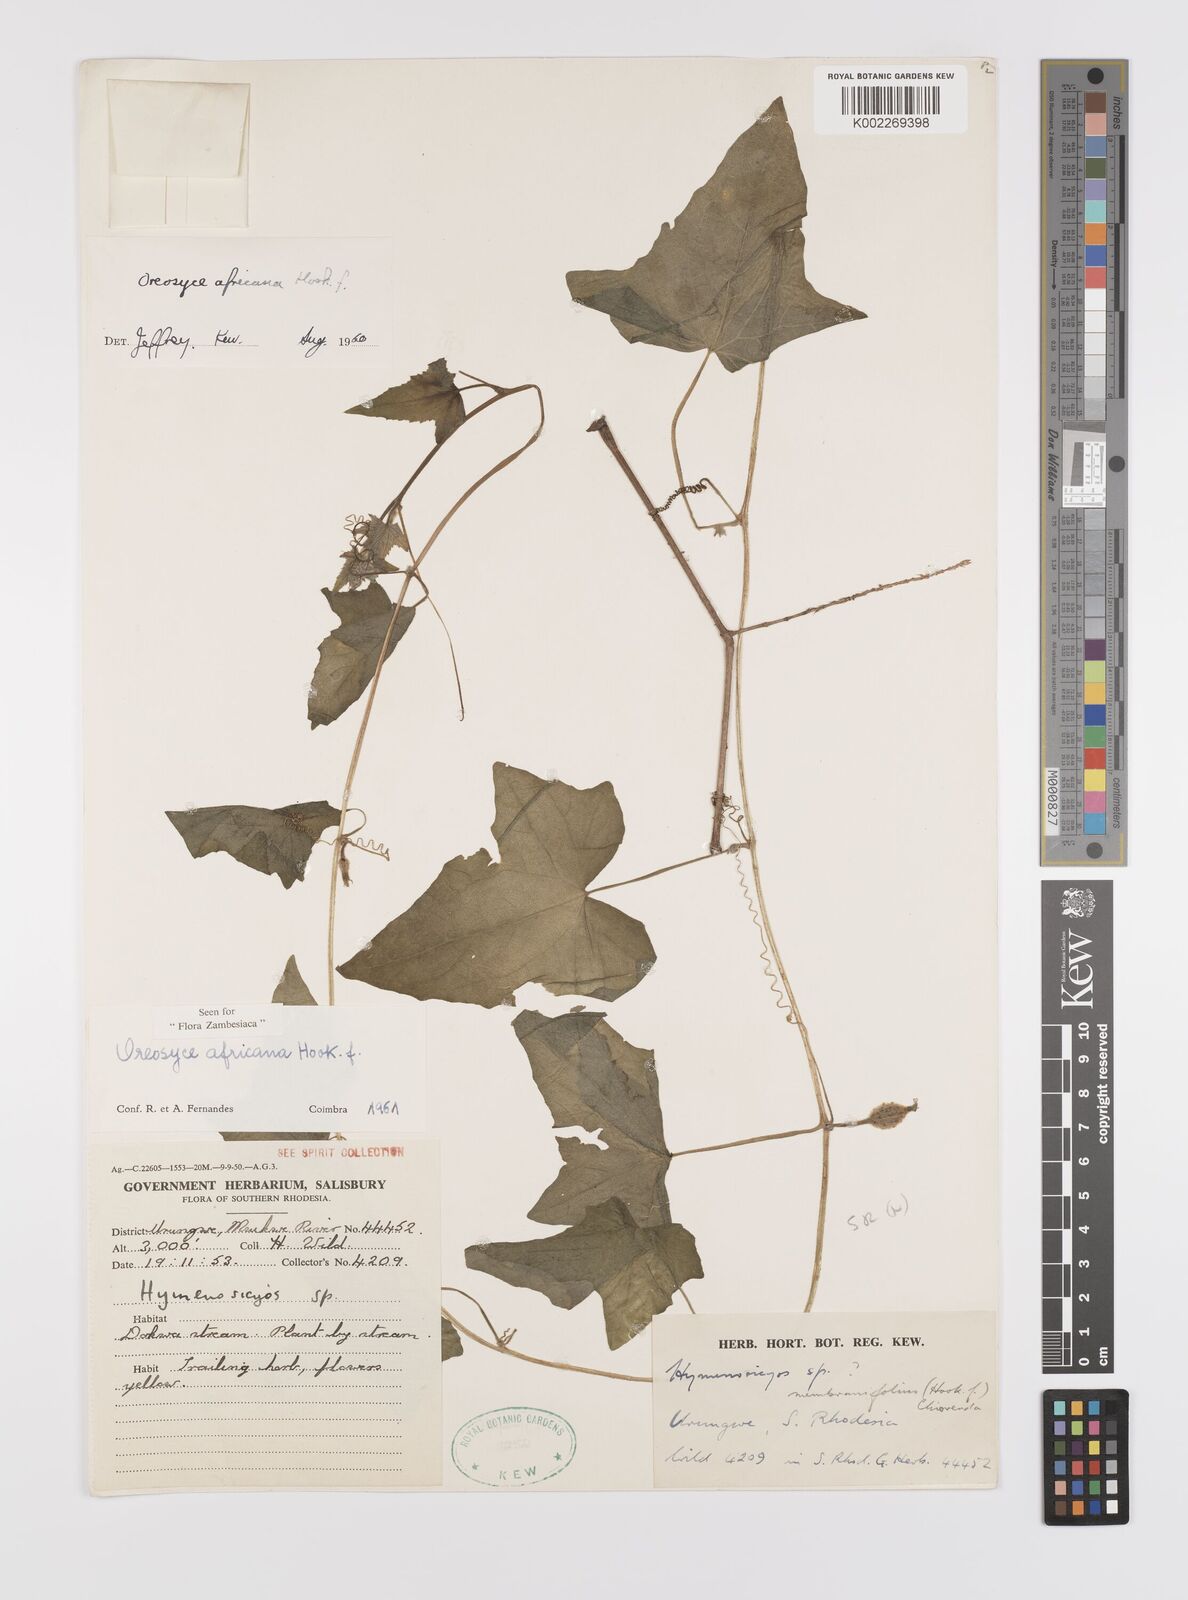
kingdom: Plantae
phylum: Tracheophyta
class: Magnoliopsida
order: Cucurbitales
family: Cucurbitaceae
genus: Cucumis
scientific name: Cucumis oreosyce
